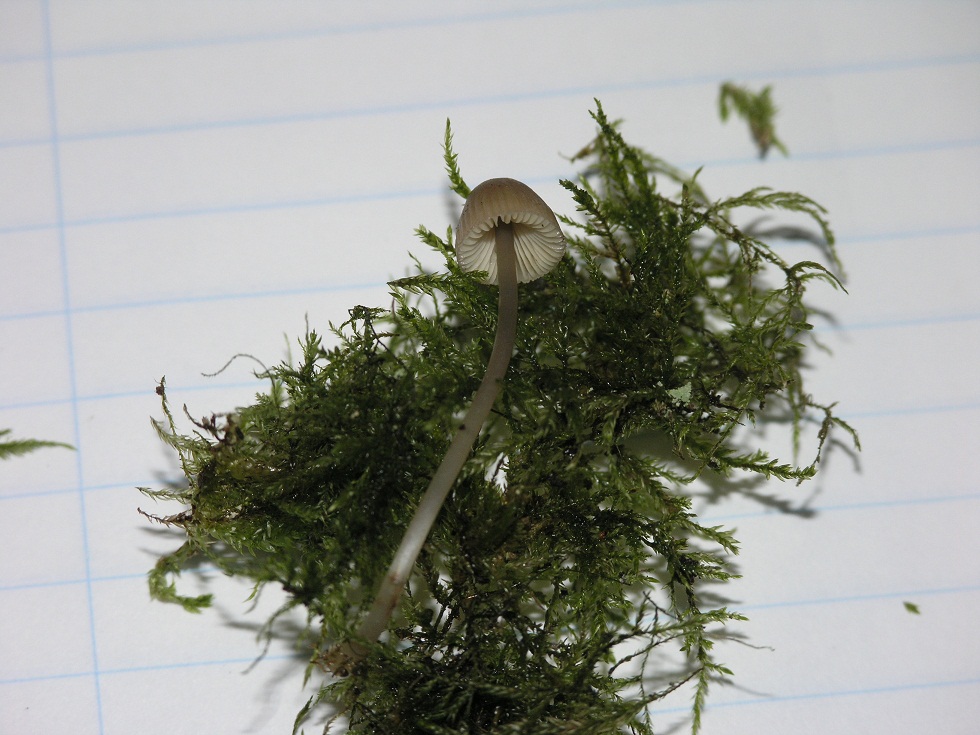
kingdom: Fungi
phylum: Basidiomycota
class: Agaricomycetes
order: Agaricales
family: Mycenaceae
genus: Mycena
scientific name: Mycena polygramma
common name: Grooved bonnet
